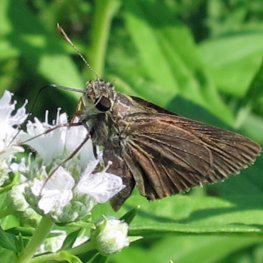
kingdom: Animalia
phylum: Arthropoda
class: Insecta
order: Lepidoptera
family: Hesperiidae
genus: Euphyes
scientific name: Euphyes vestris
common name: Dun Skipper
